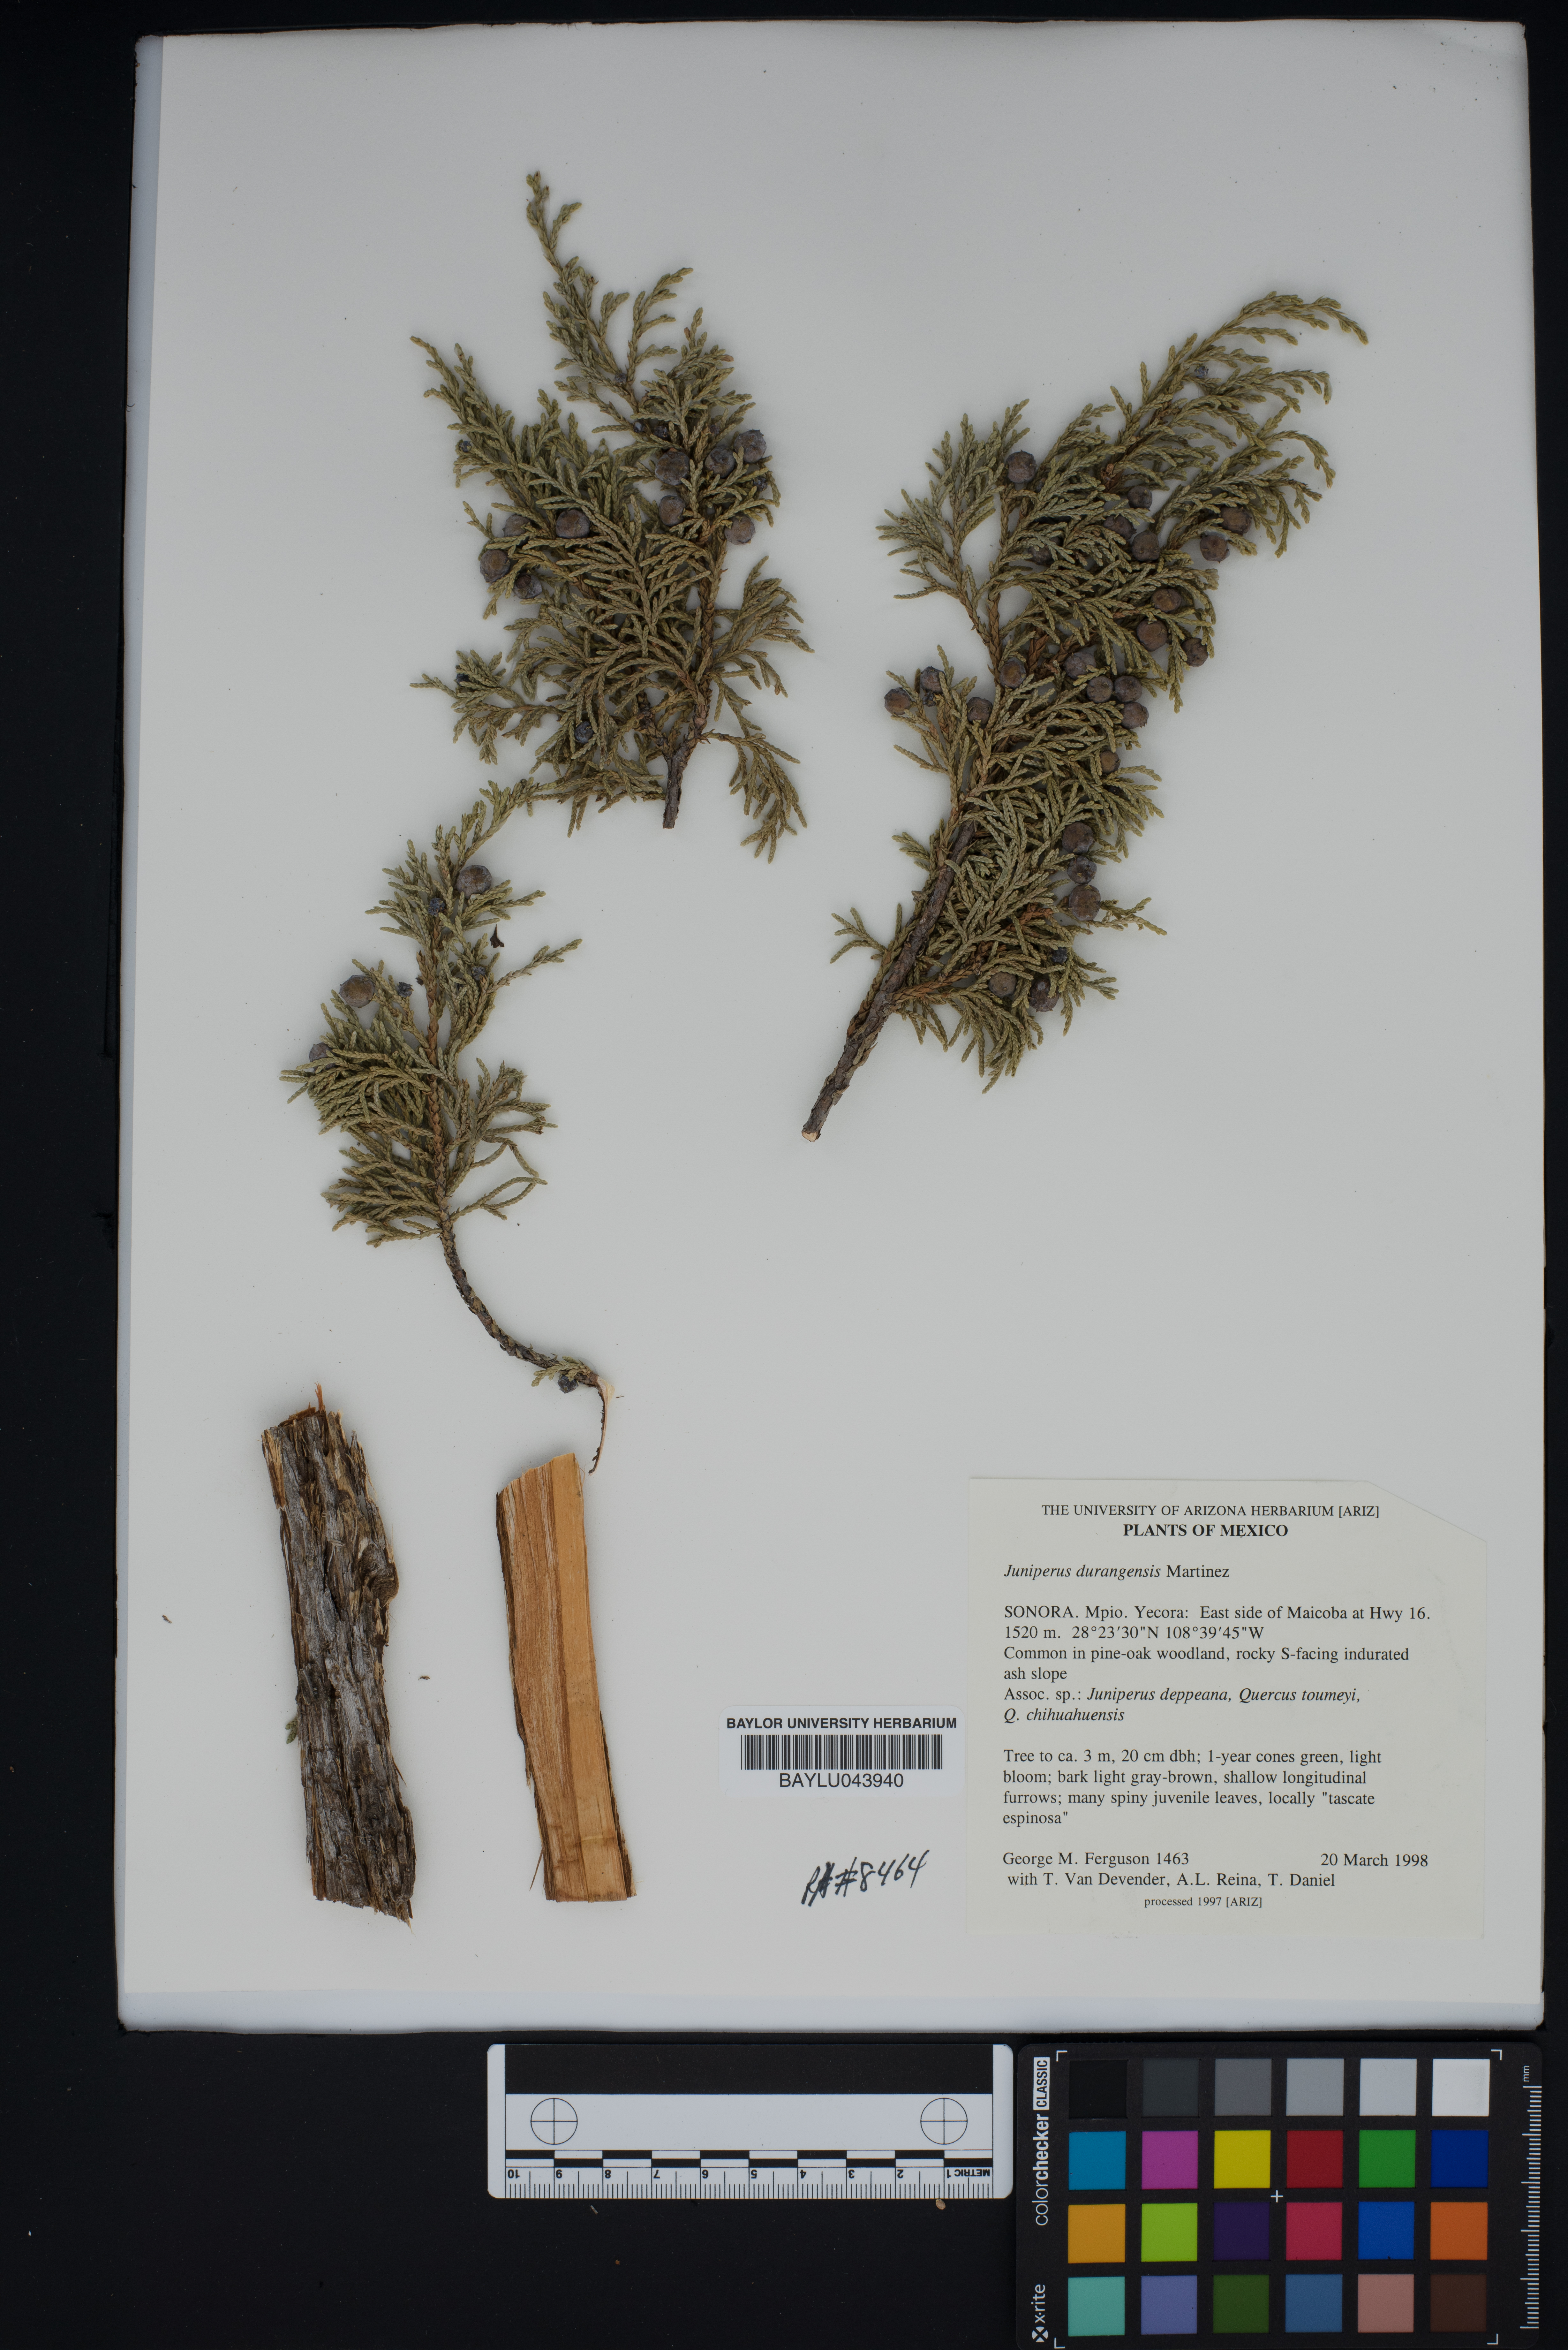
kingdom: Plantae
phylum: Tracheophyta
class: Pinopsida
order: Pinales
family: Cupressaceae
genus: Juniperus
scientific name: Juniperus durangensis
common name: Durango juniper
